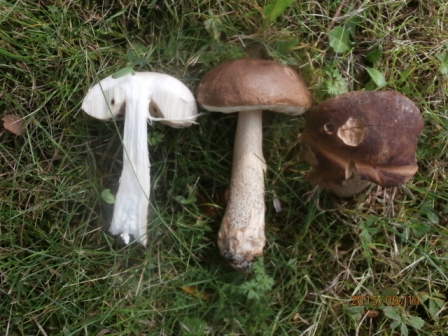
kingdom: Fungi
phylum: Basidiomycota
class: Agaricomycetes
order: Boletales
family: Boletaceae
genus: Leccinum
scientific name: Leccinum scabrum
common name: brun skælrørhat
